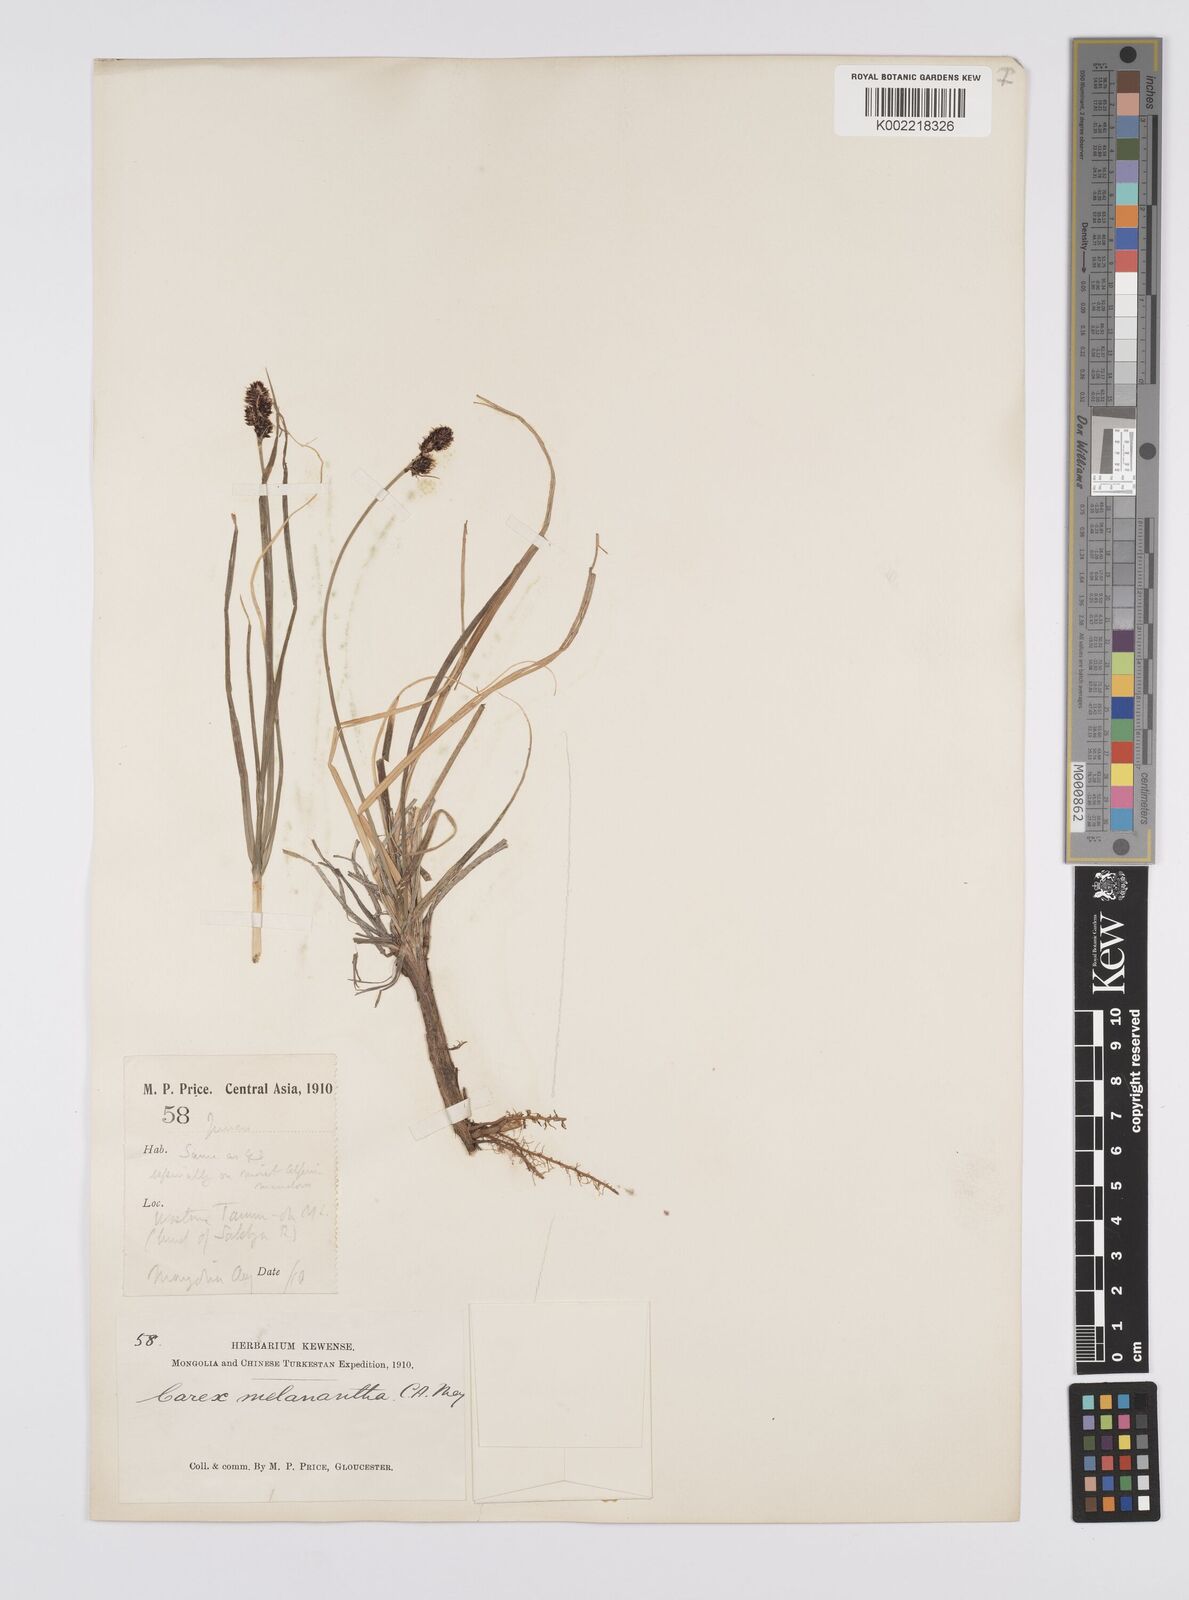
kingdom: Plantae
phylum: Tracheophyta
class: Liliopsida
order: Poales
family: Cyperaceae
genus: Carex
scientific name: Carex melanantha
